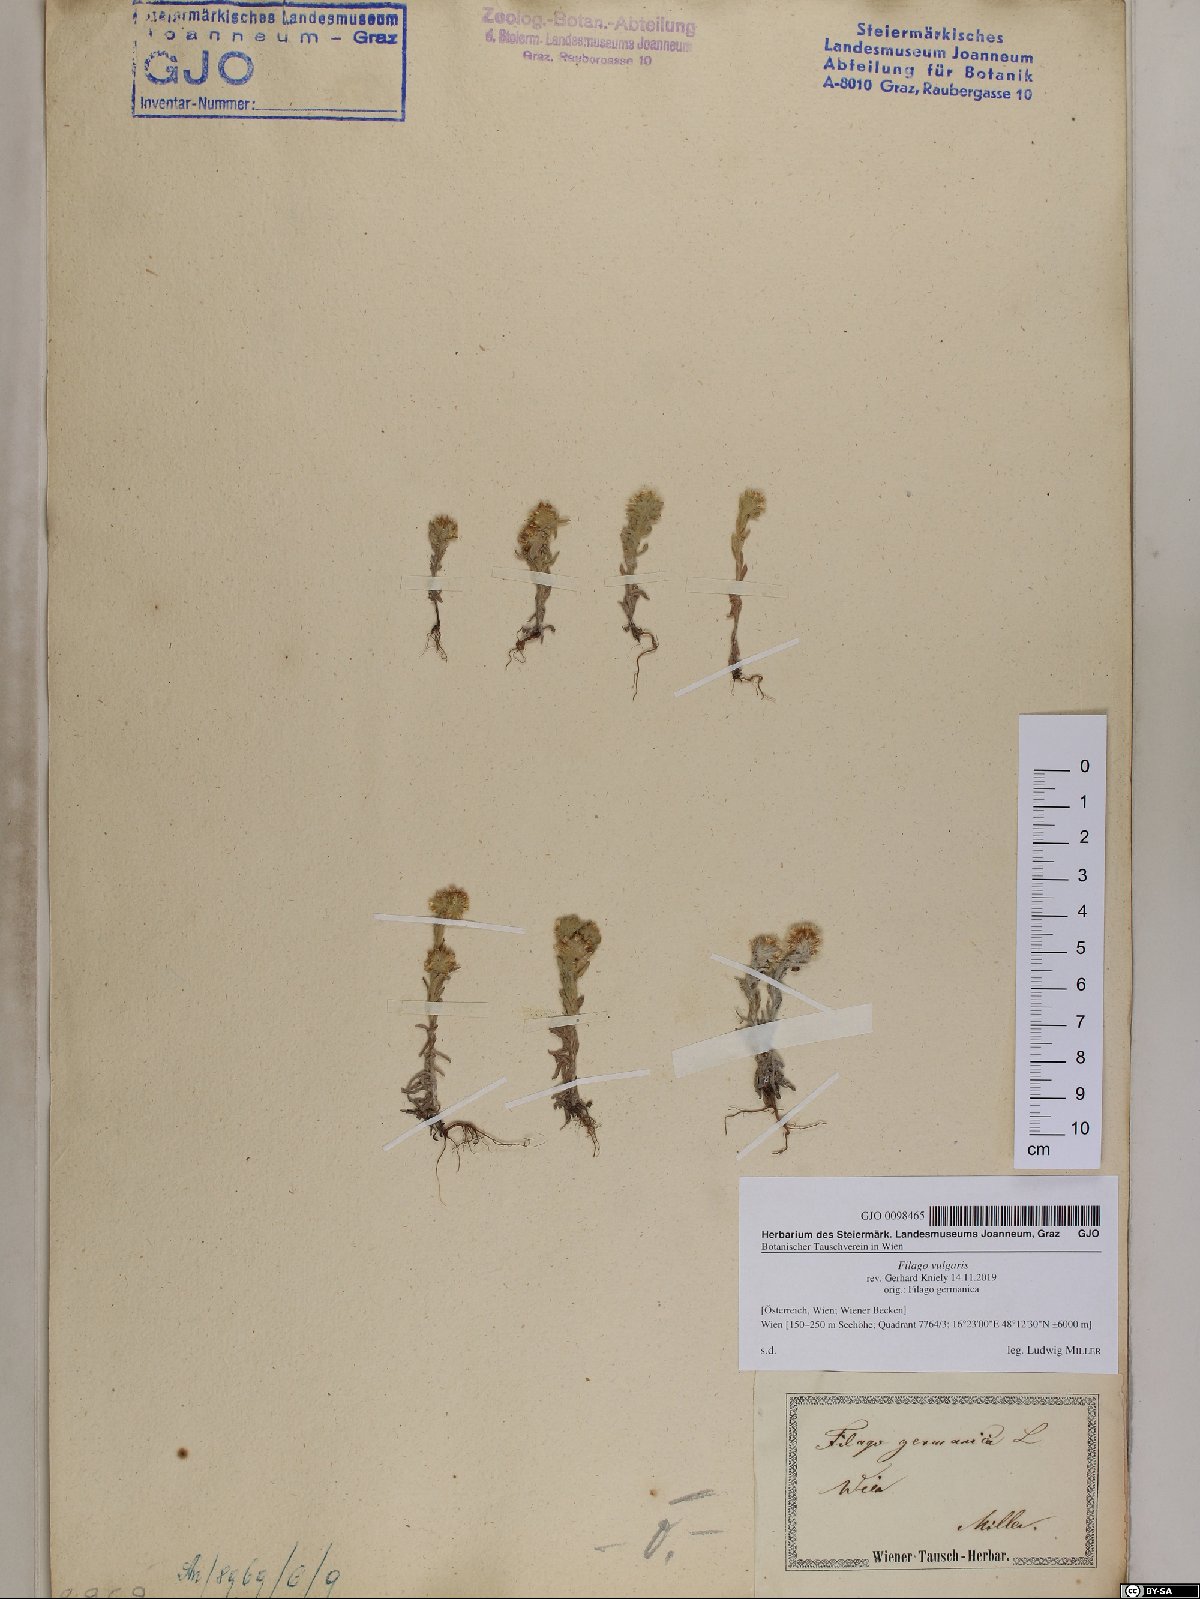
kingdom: Plantae
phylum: Tracheophyta
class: Magnoliopsida
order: Asterales
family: Asteraceae
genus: Filago
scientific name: Filago germanica
